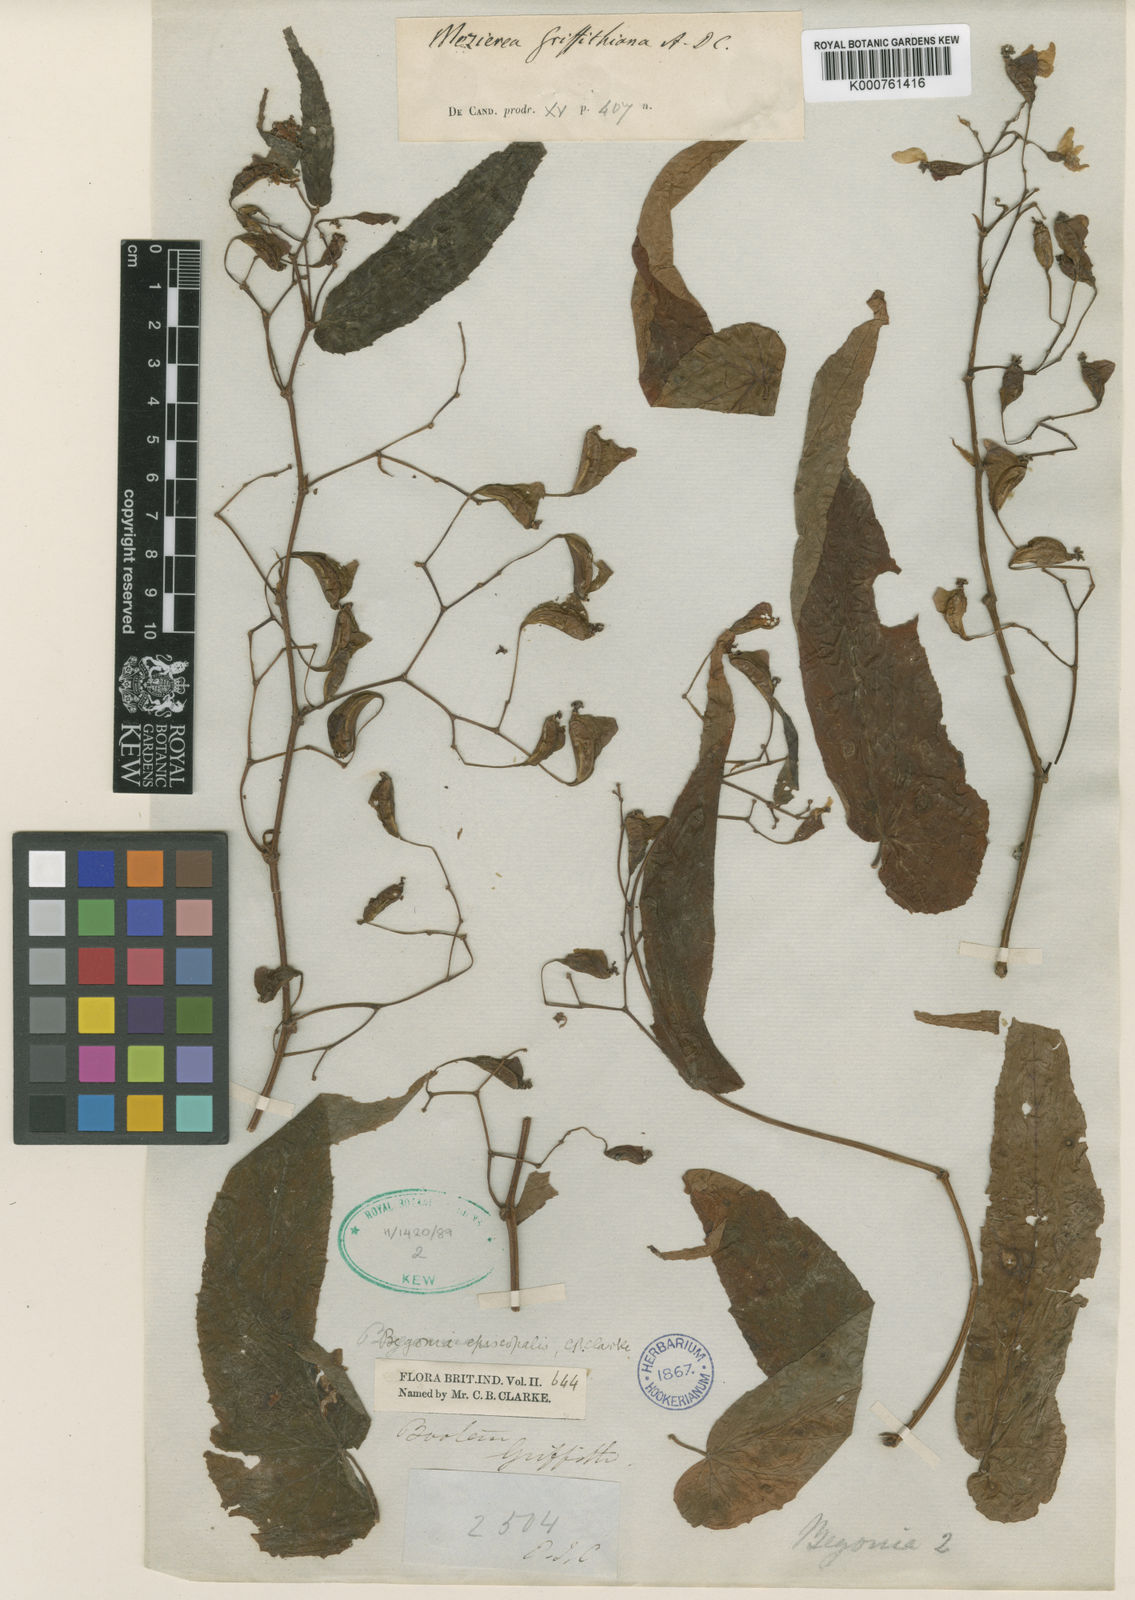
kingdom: Plantae
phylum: Tracheophyta
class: Magnoliopsida
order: Cucurbitales
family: Begoniaceae
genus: Begonia
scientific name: Begonia griffithiana
